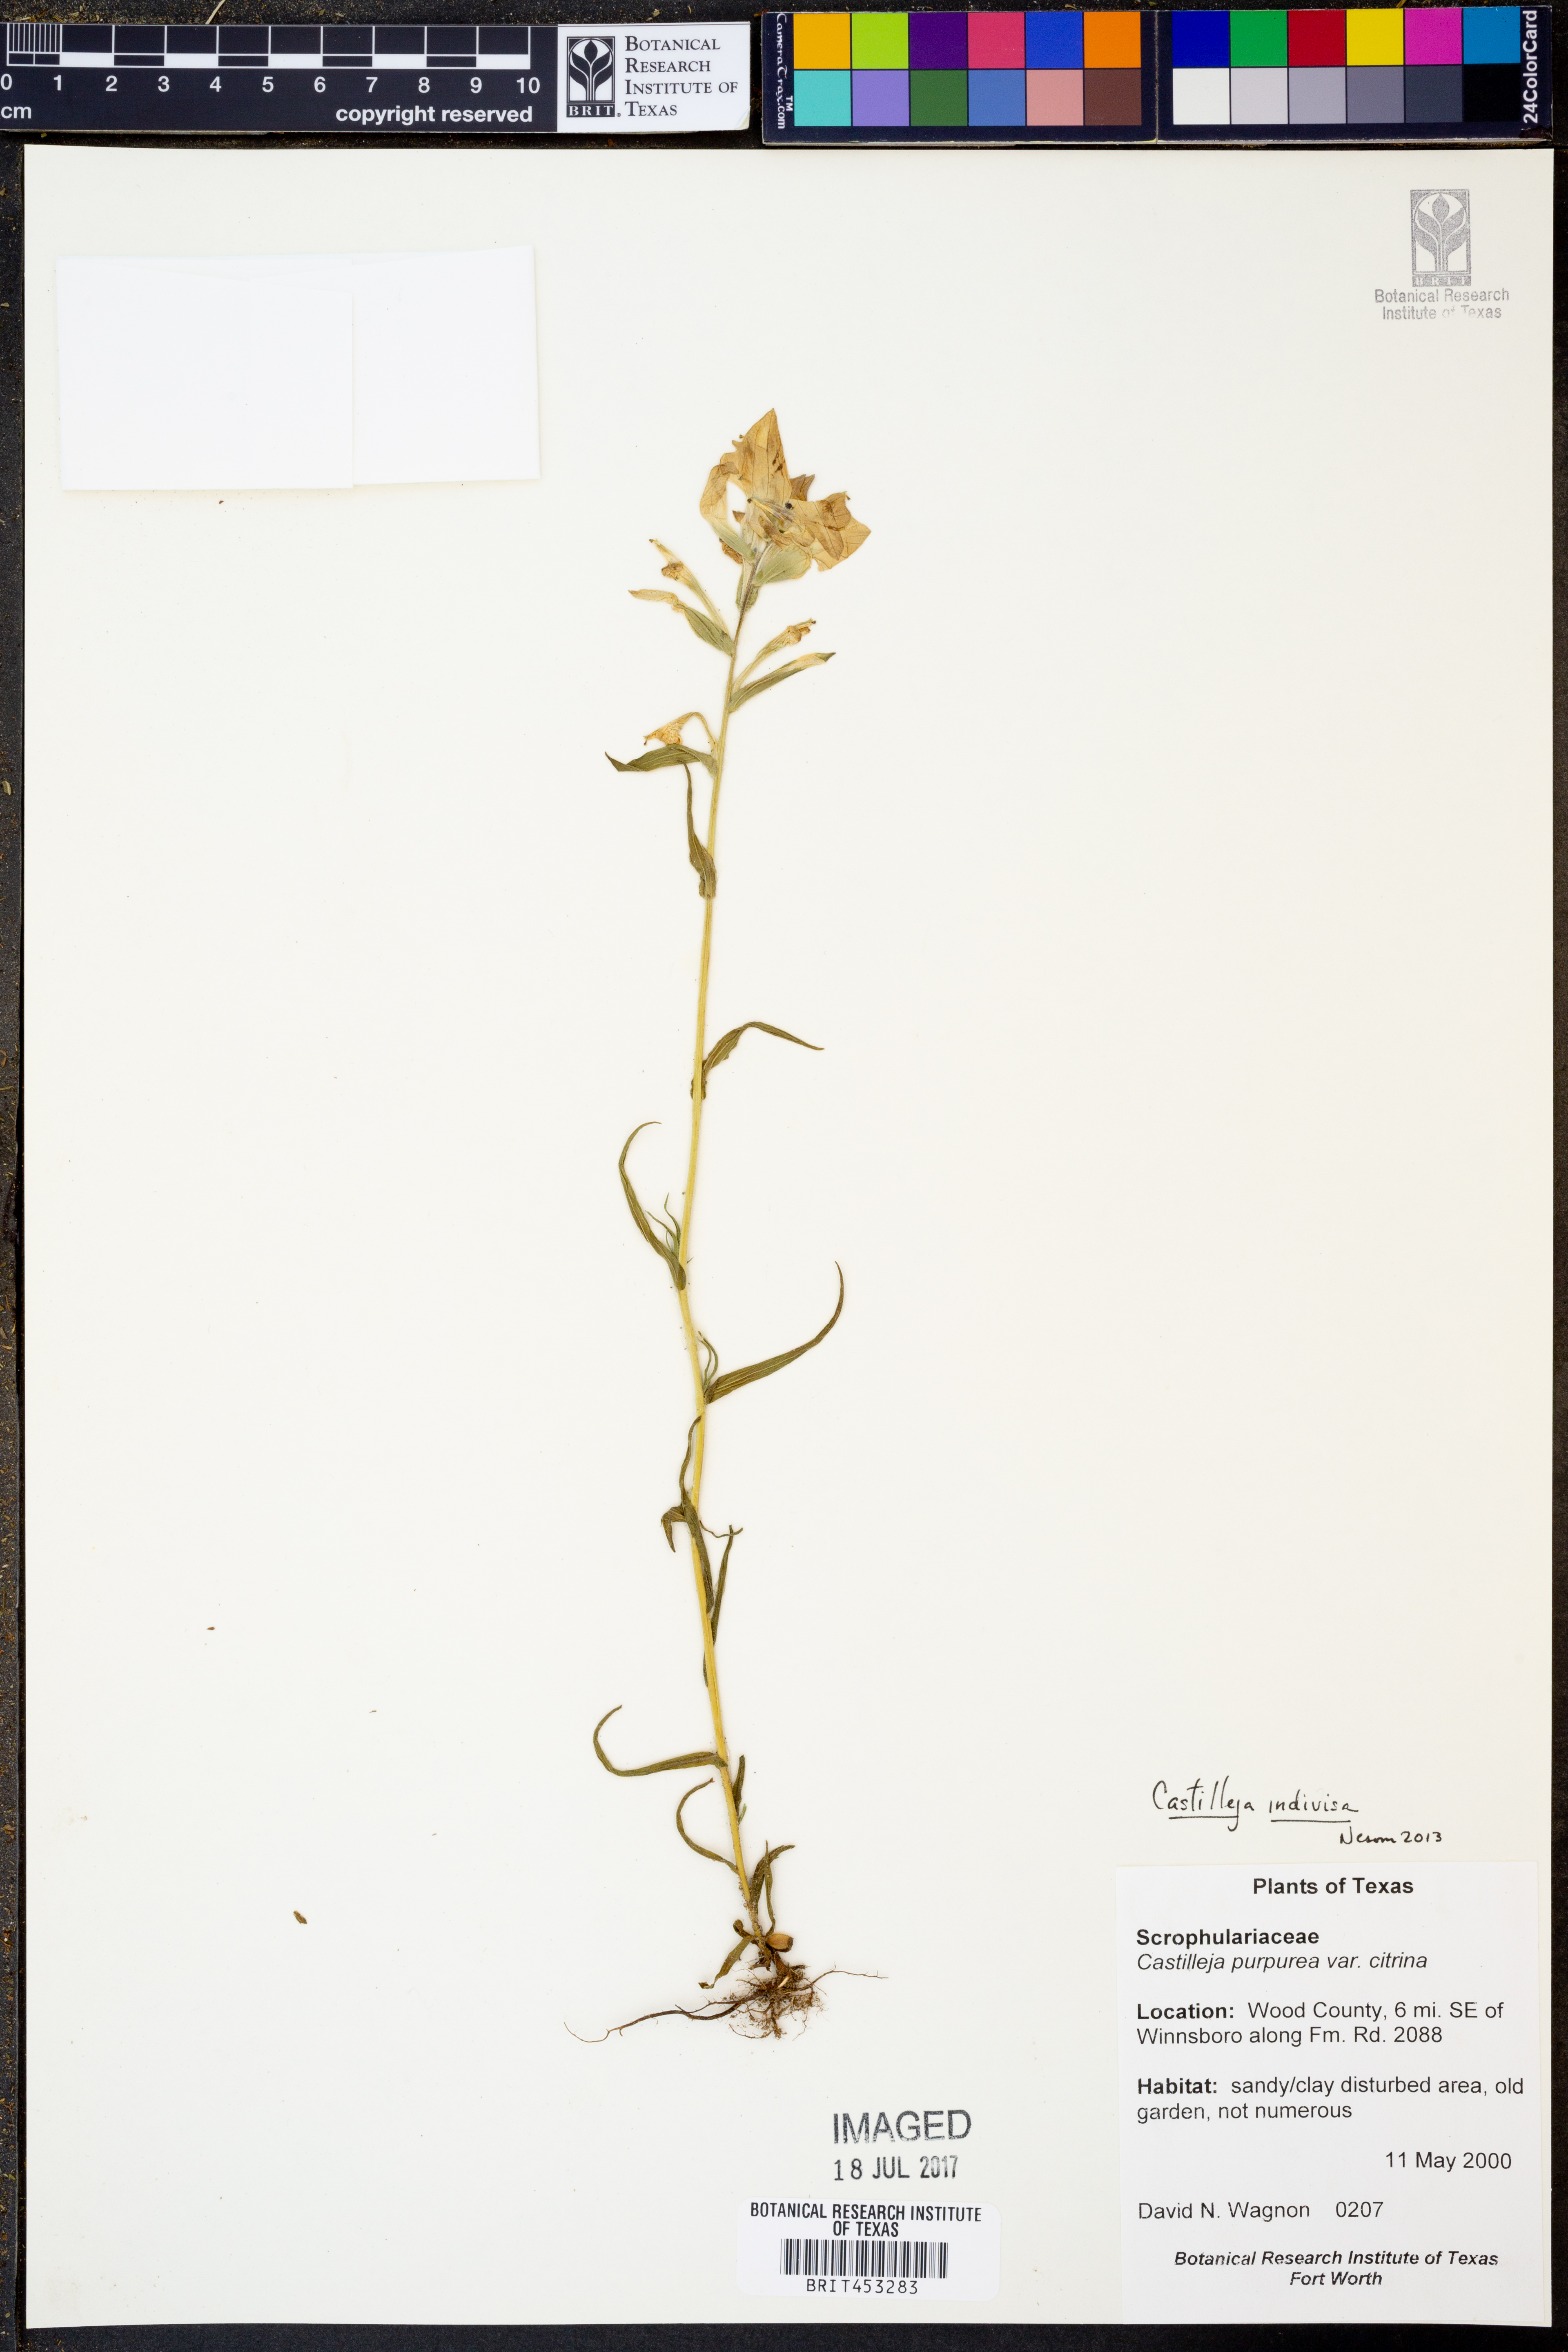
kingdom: Plantae
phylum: Tracheophyta
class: Magnoliopsida
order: Lamiales
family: Orobanchaceae
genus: Castilleja
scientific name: Castilleja indivisa
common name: Texas paintbrush
